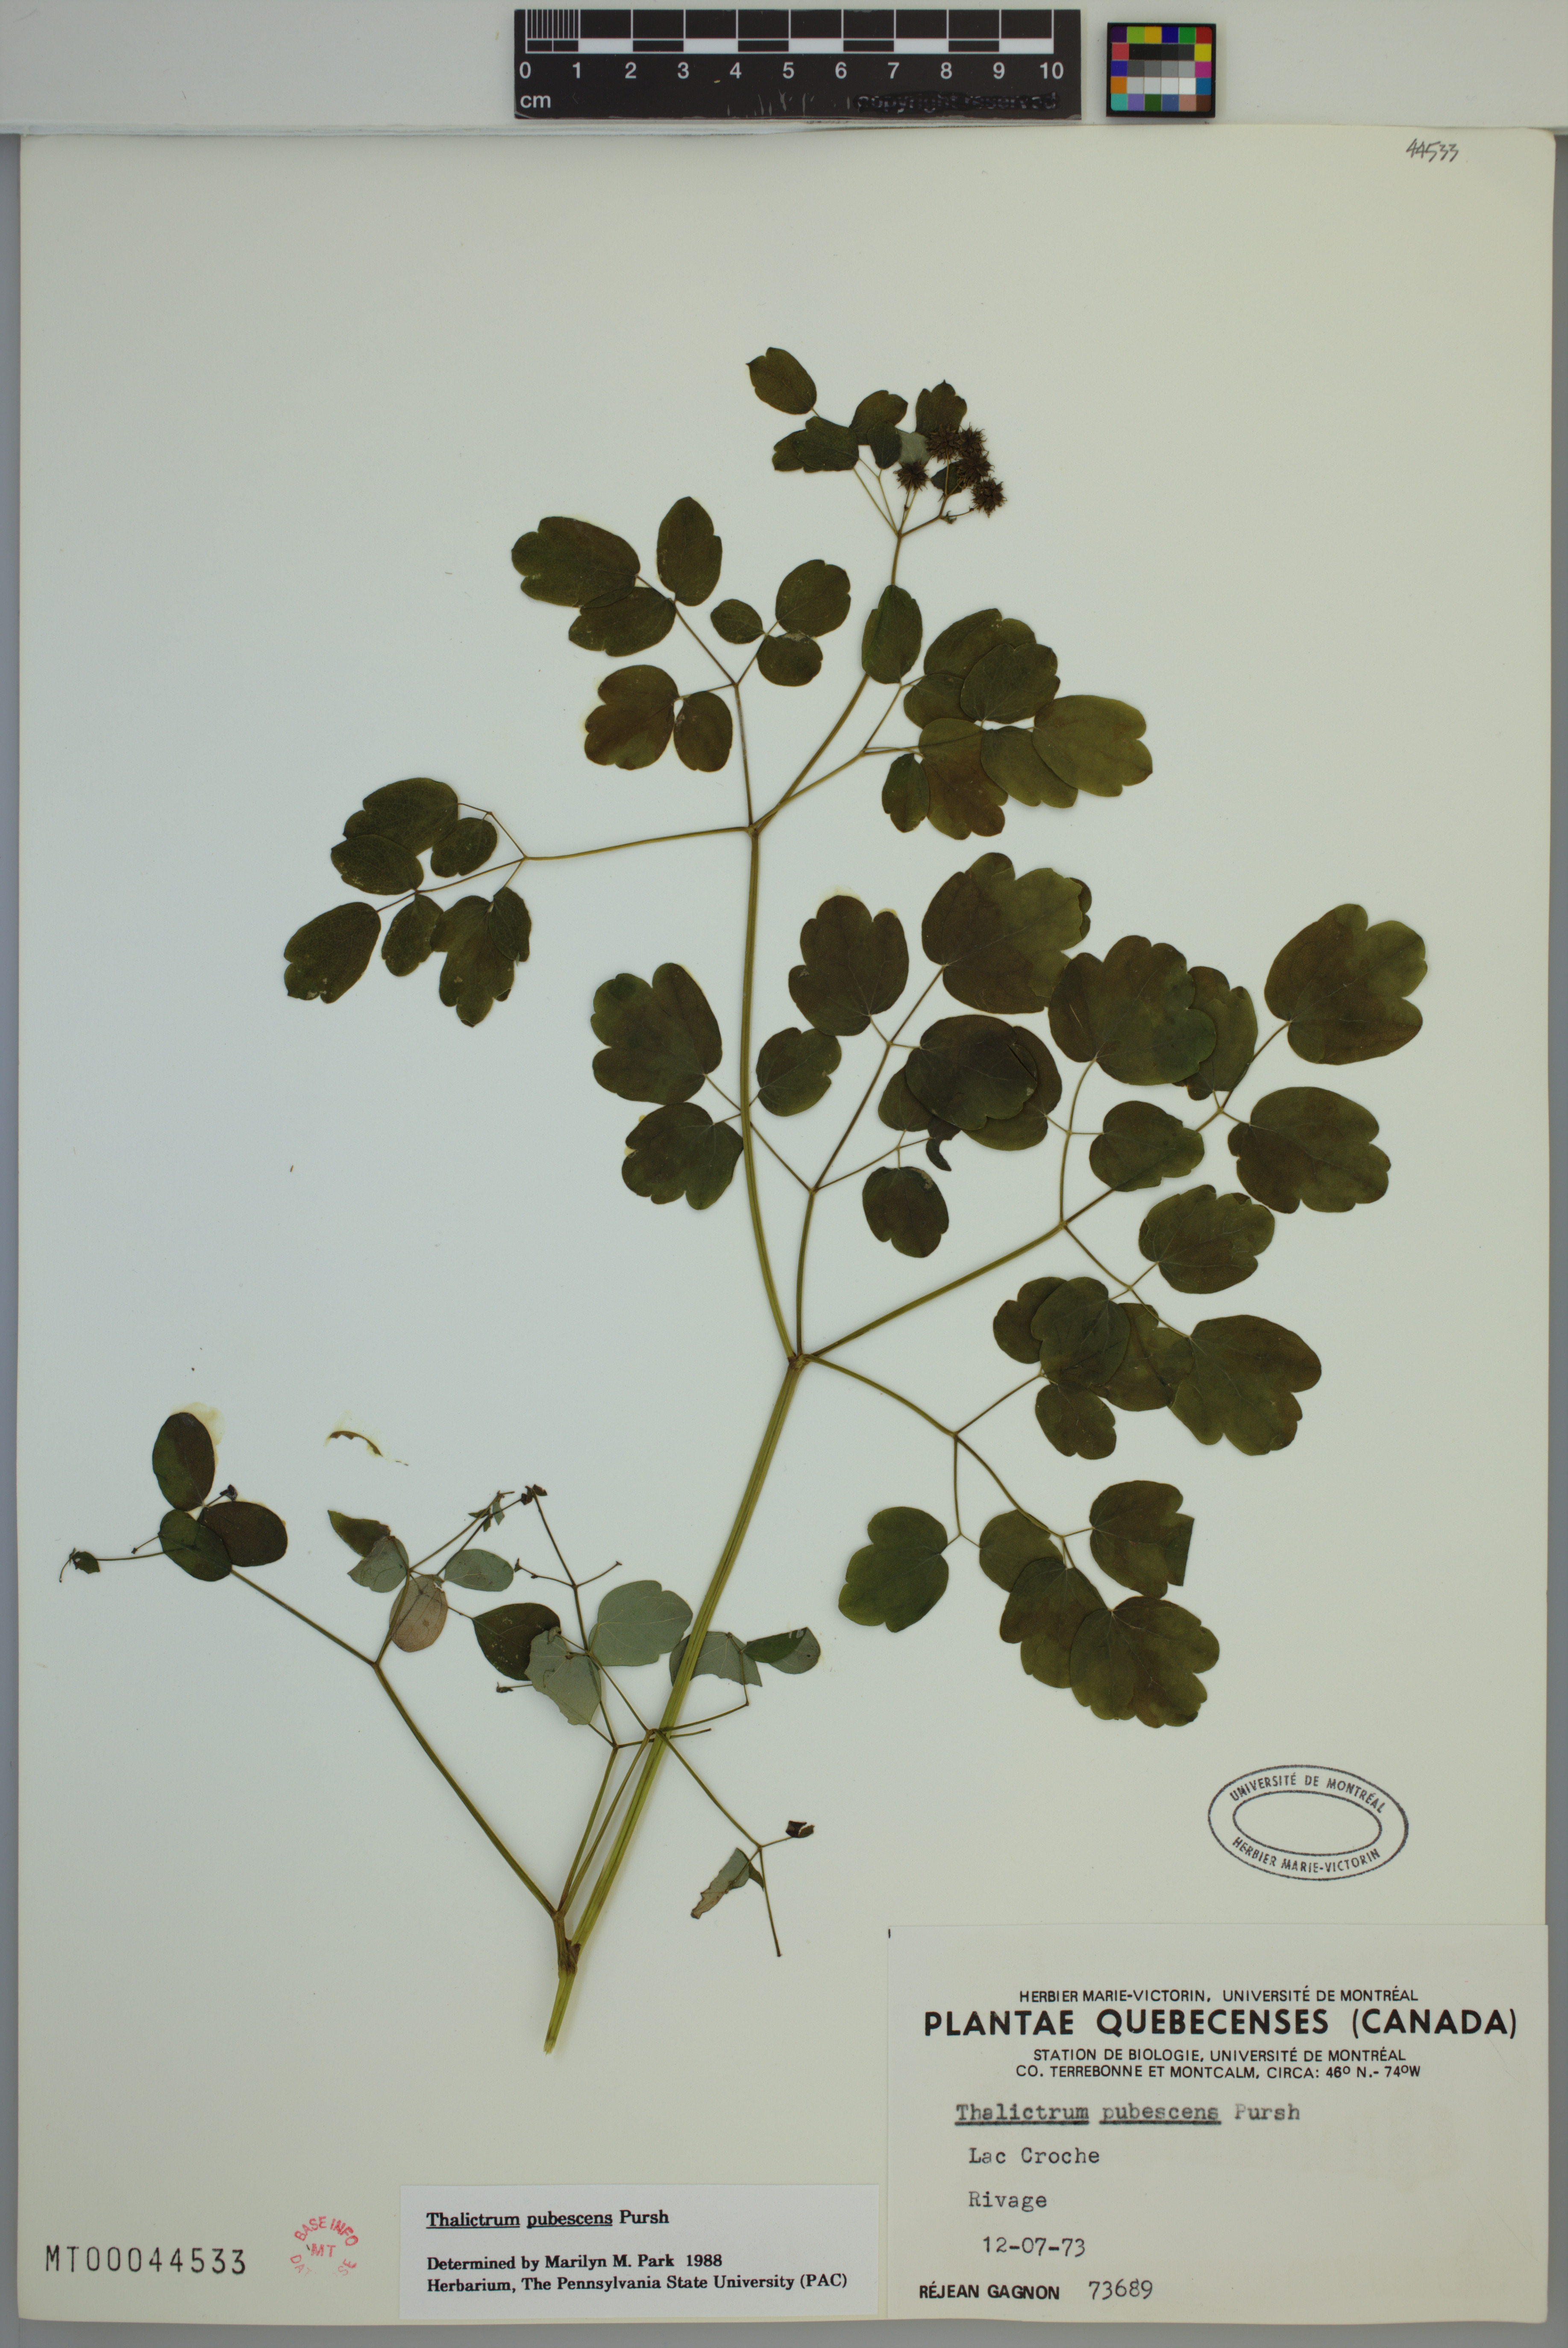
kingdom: Plantae
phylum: Tracheophyta
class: Magnoliopsida
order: Ranunculales
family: Ranunculaceae
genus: Thalictrum
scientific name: Thalictrum pubescens
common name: King-of-the-meadow
